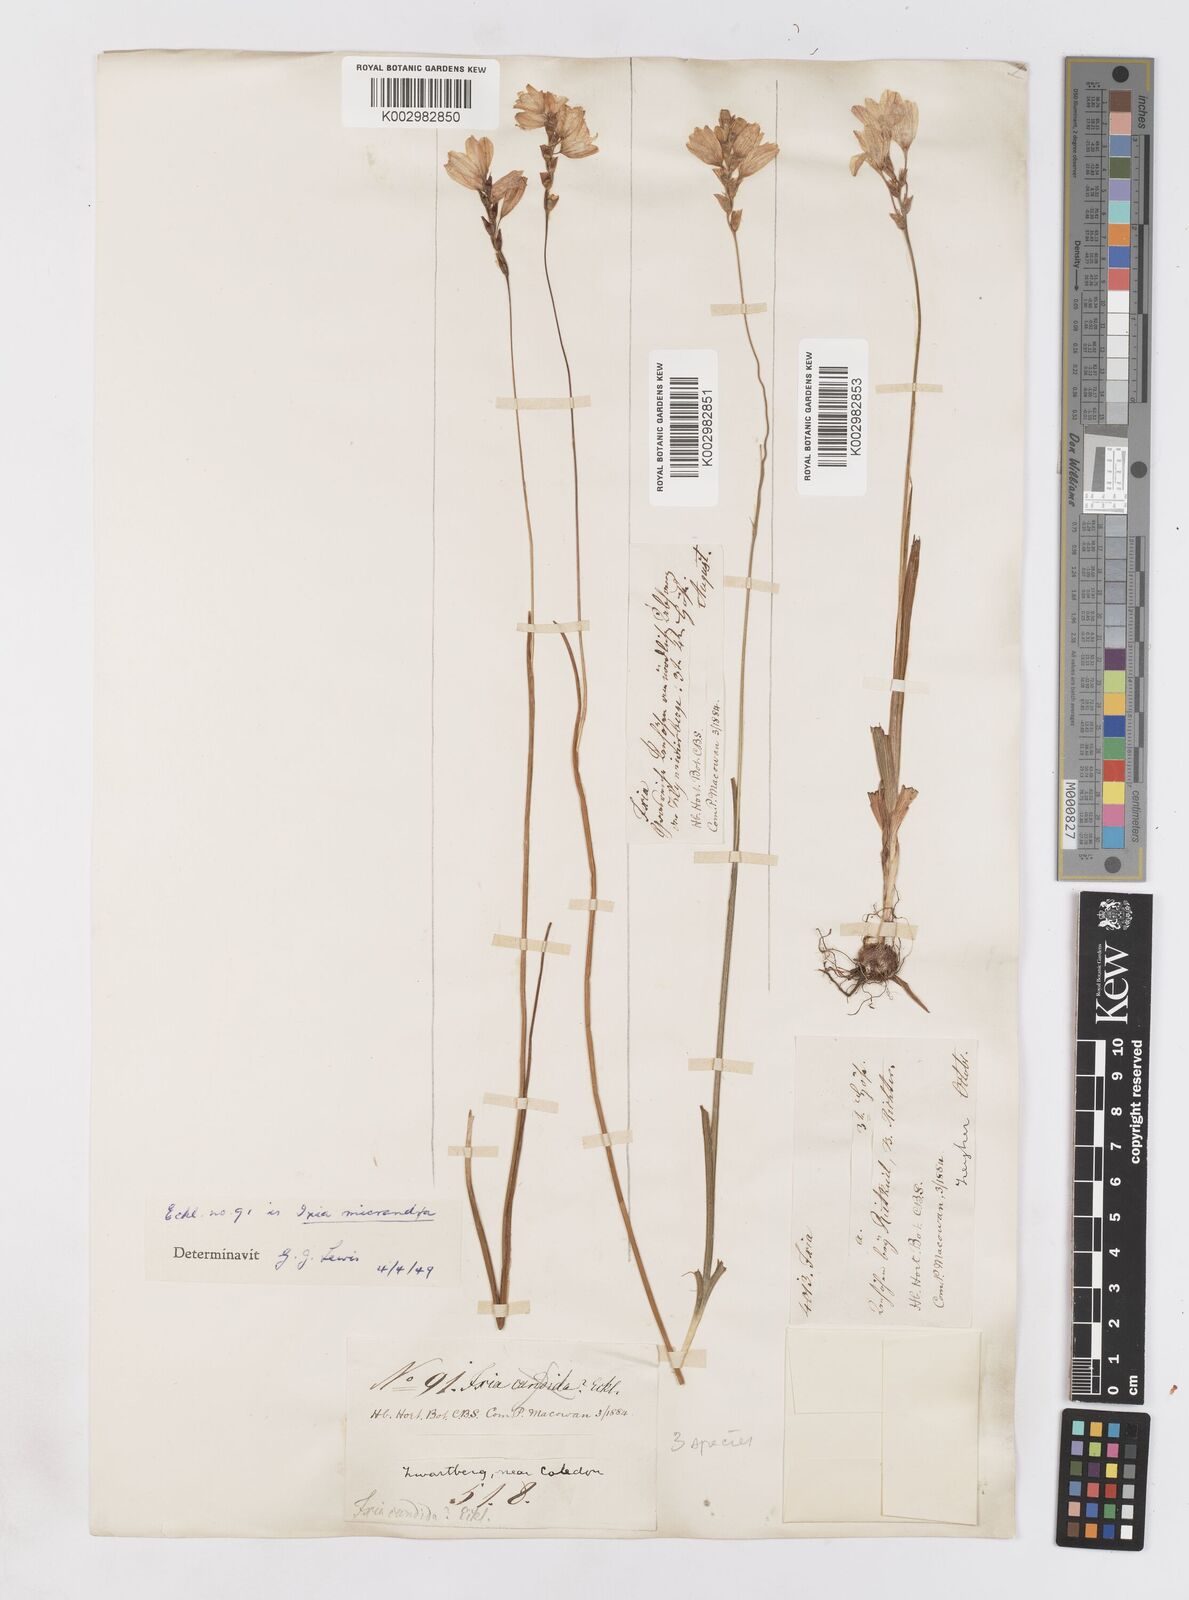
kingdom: Plantae
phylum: Tracheophyta
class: Liliopsida
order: Asparagales
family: Iridaceae
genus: Ixia
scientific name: Ixia micrandra
